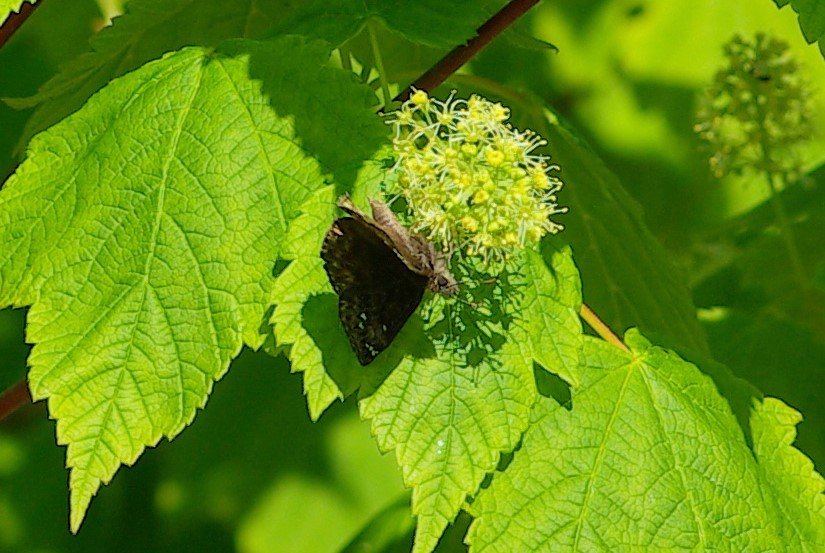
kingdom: Animalia
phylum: Arthropoda
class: Insecta
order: Lepidoptera
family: Hesperiidae
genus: Gesta
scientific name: Gesta
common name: Juvenal's Duskywing
